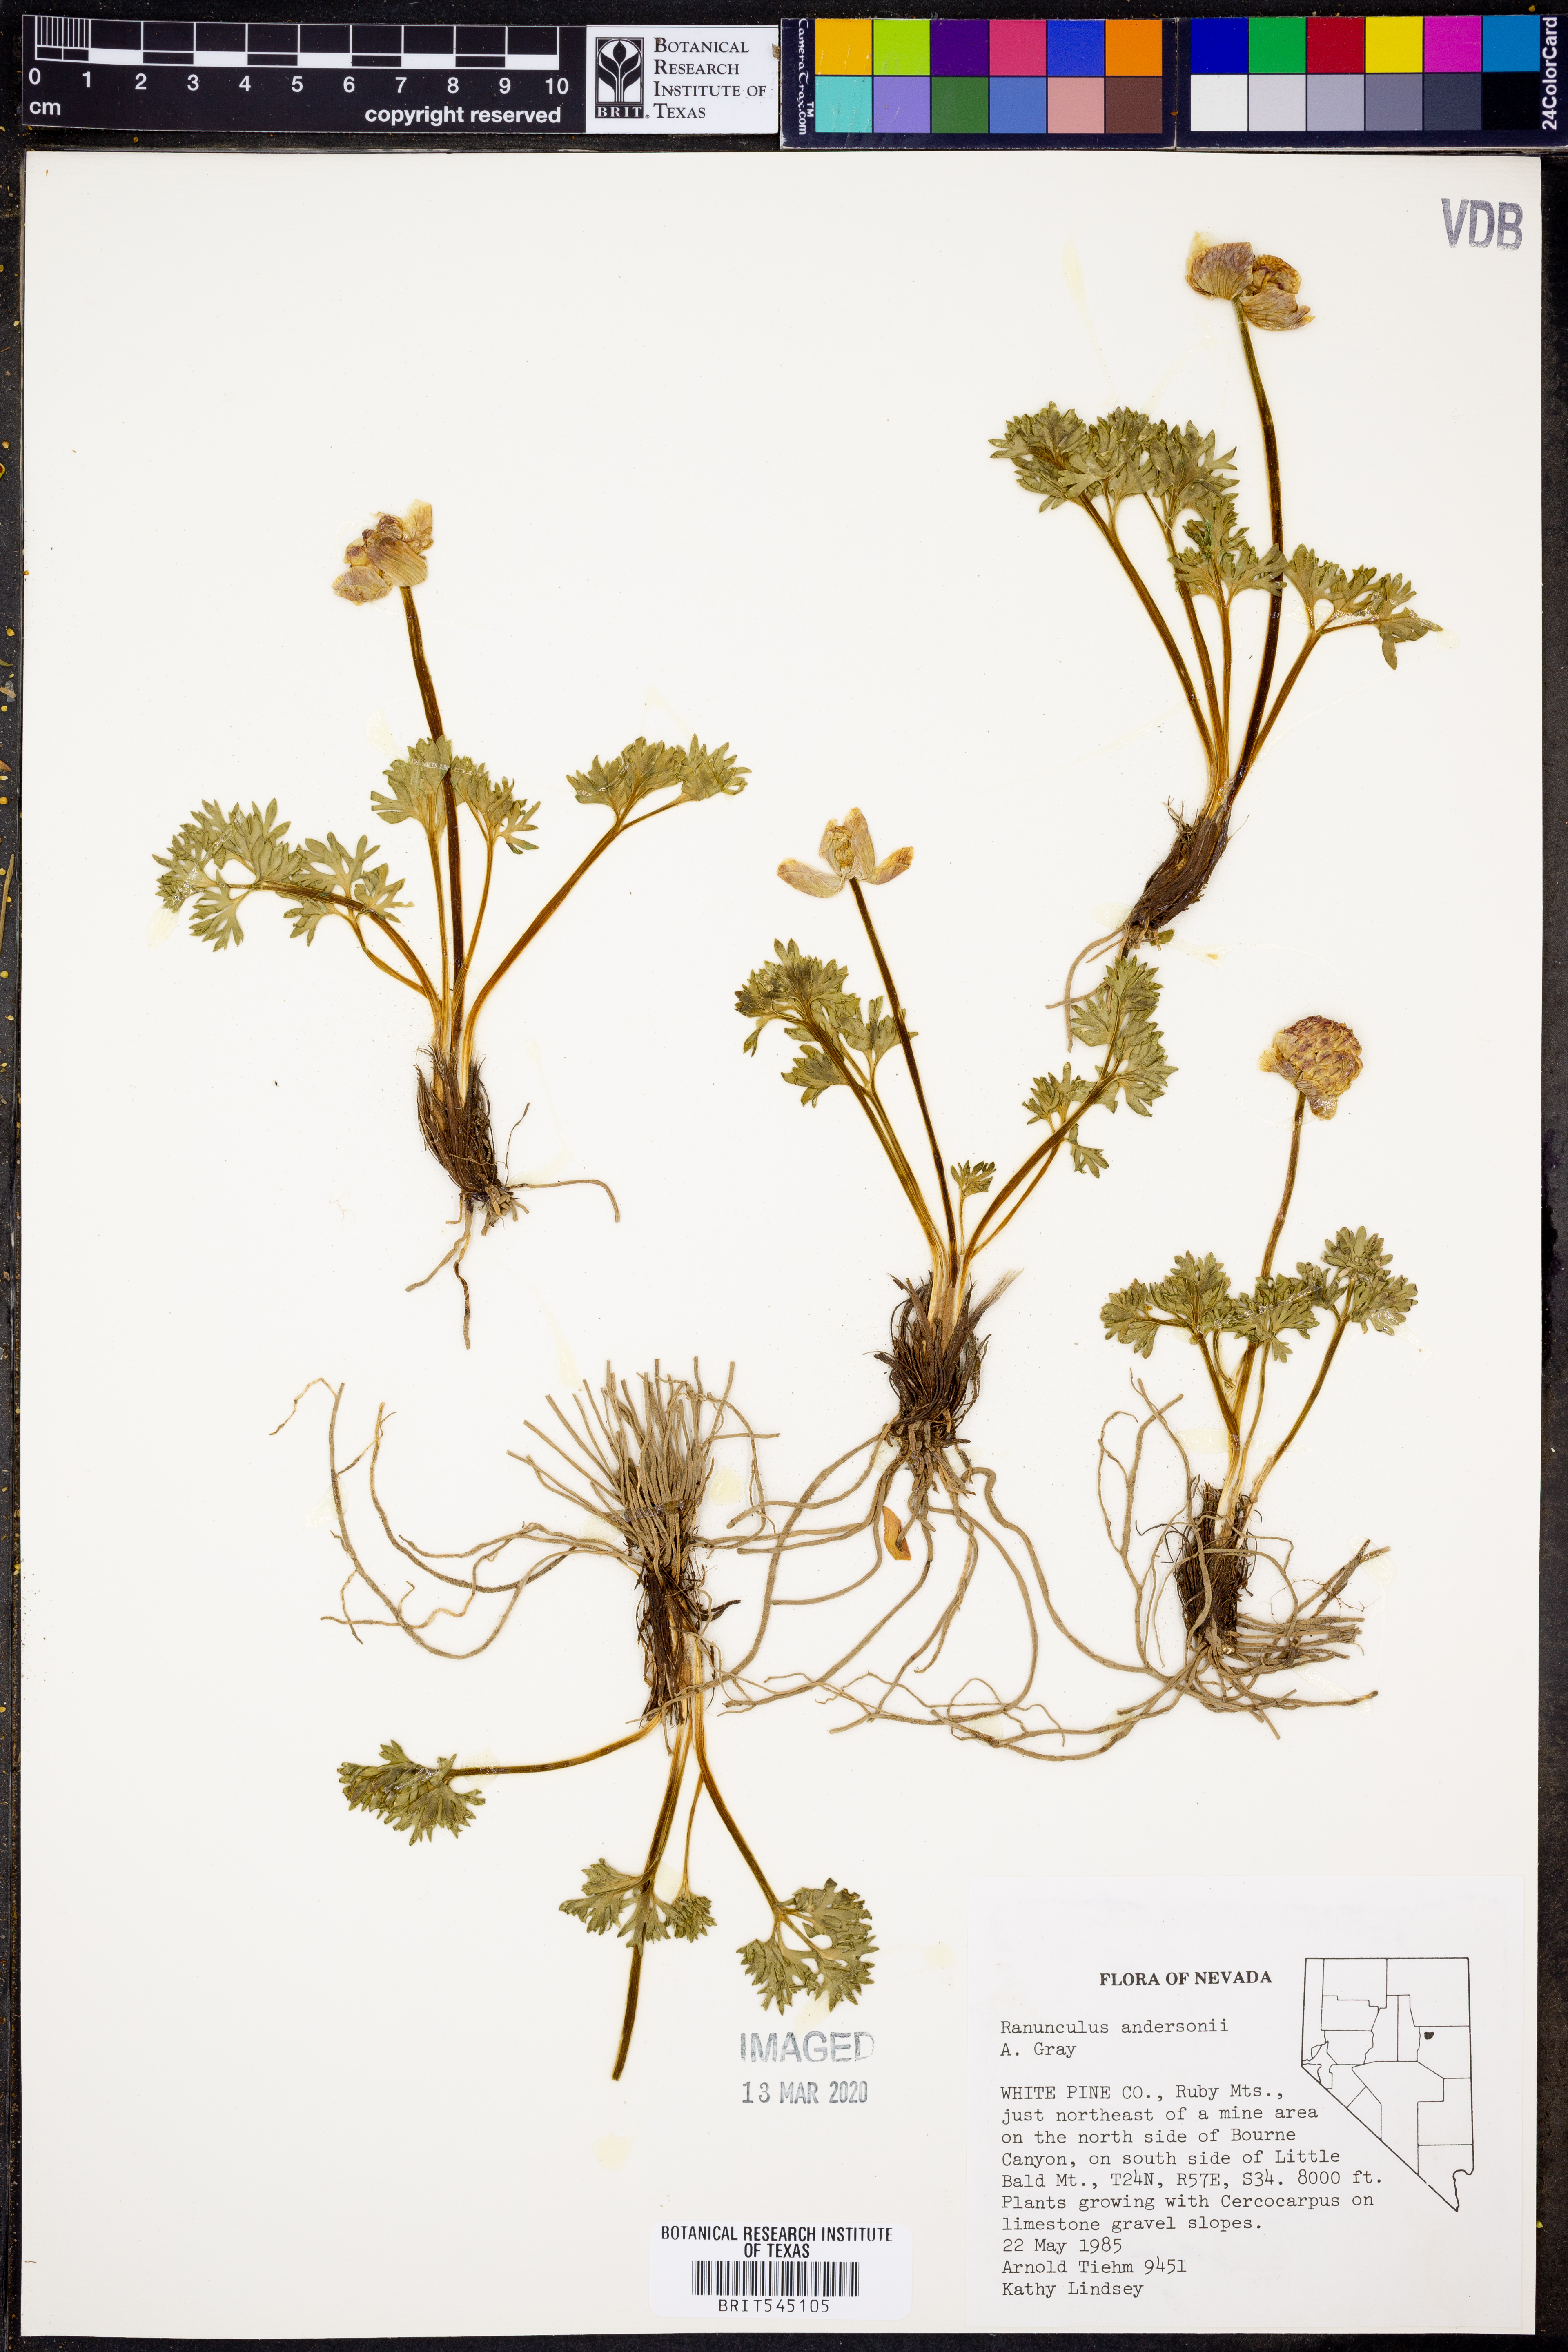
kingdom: Plantae
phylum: Tracheophyta
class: Magnoliopsida
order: Ranunculales
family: Ranunculaceae
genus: Beckwithia
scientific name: Beckwithia andersonii
